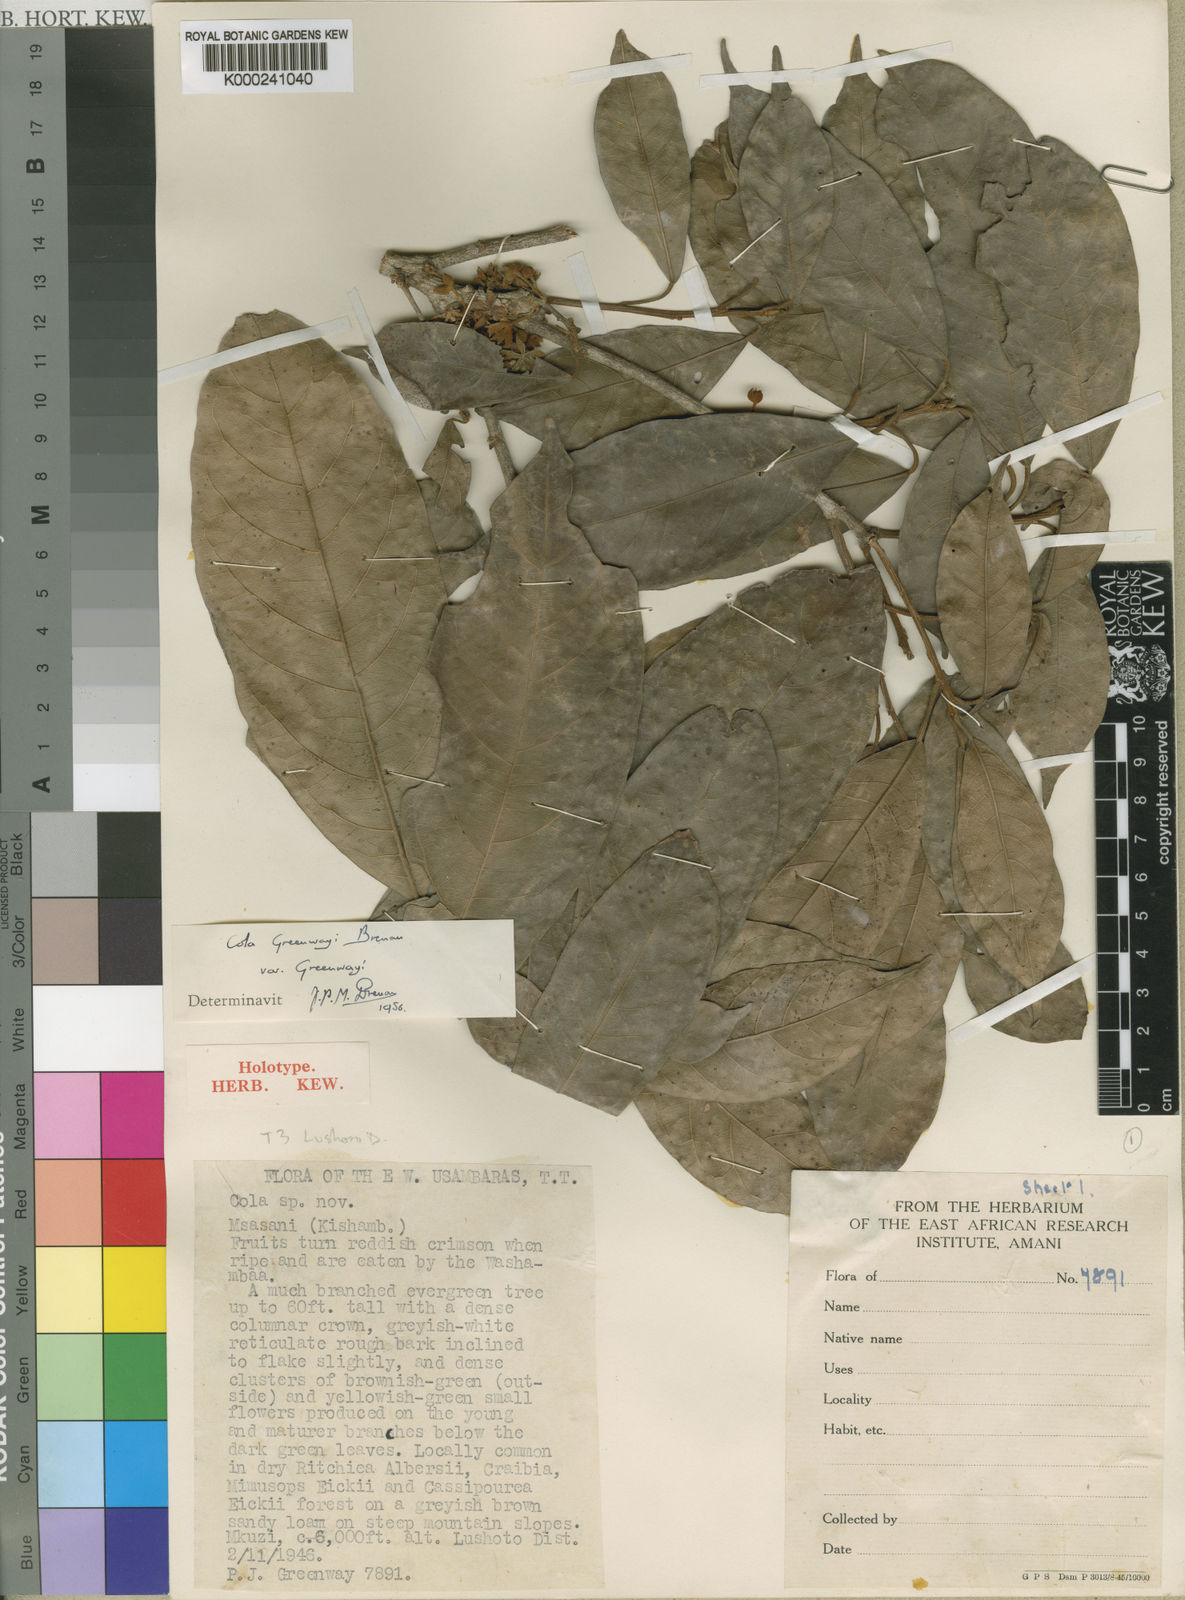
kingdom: Plantae
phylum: Tracheophyta
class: Magnoliopsida
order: Malvales
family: Malvaceae
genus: Cola
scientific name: Cola greenwayi
